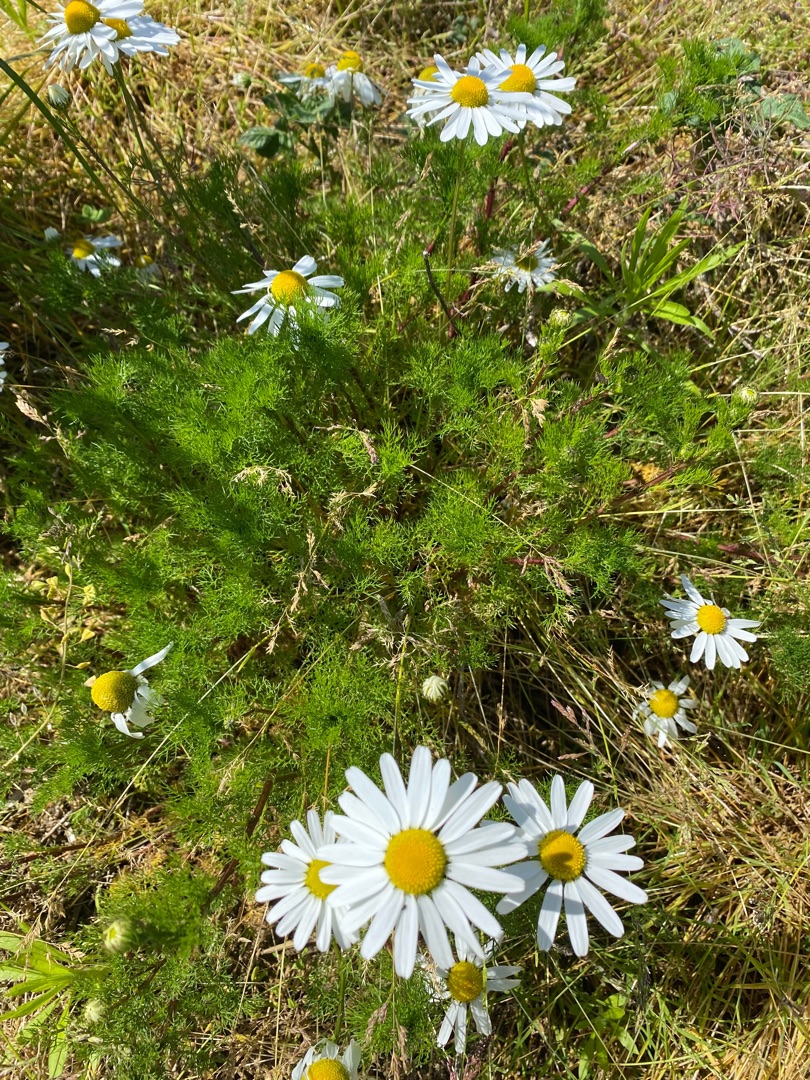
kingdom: Plantae
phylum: Tracheophyta
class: Magnoliopsida
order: Asterales
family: Asteraceae
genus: Tripleurospermum
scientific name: Tripleurospermum inodorum
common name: Lugtløs kamille
